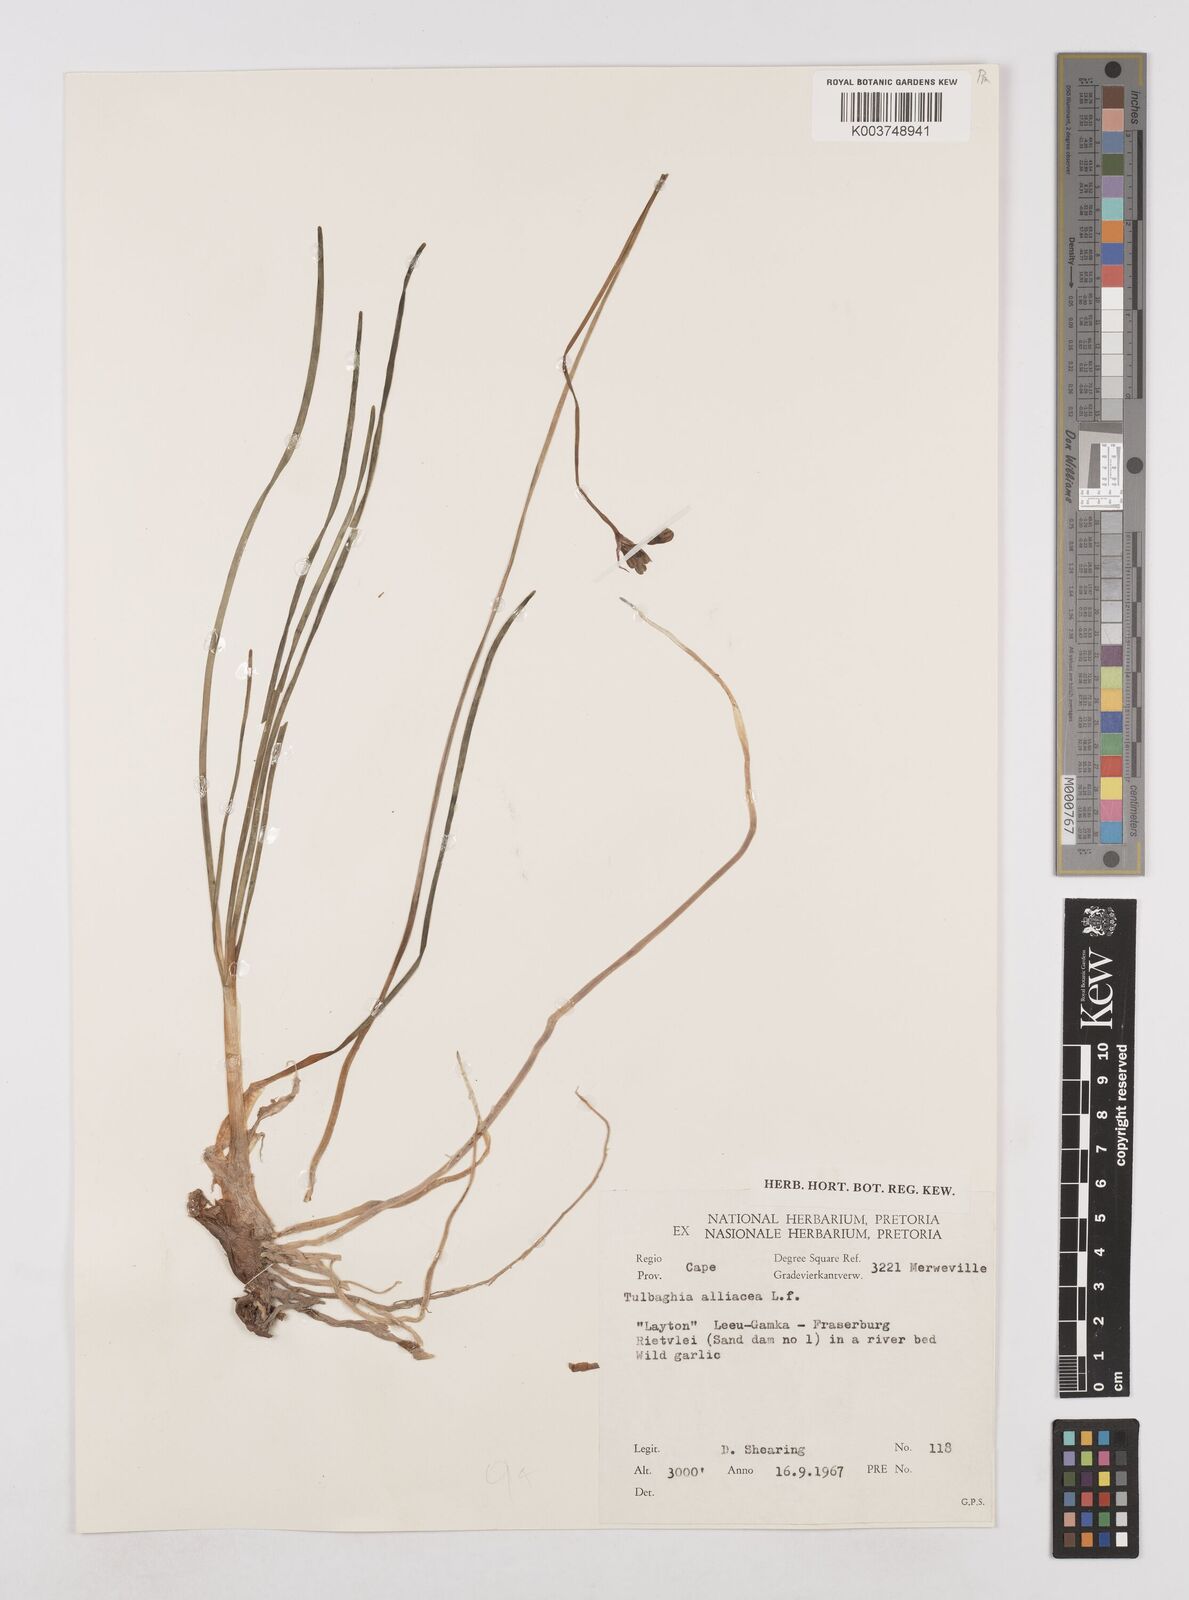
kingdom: Plantae
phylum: Tracheophyta
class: Liliopsida
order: Asparagales
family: Amaryllidaceae
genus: Tulbaghia
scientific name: Tulbaghia alliacea
